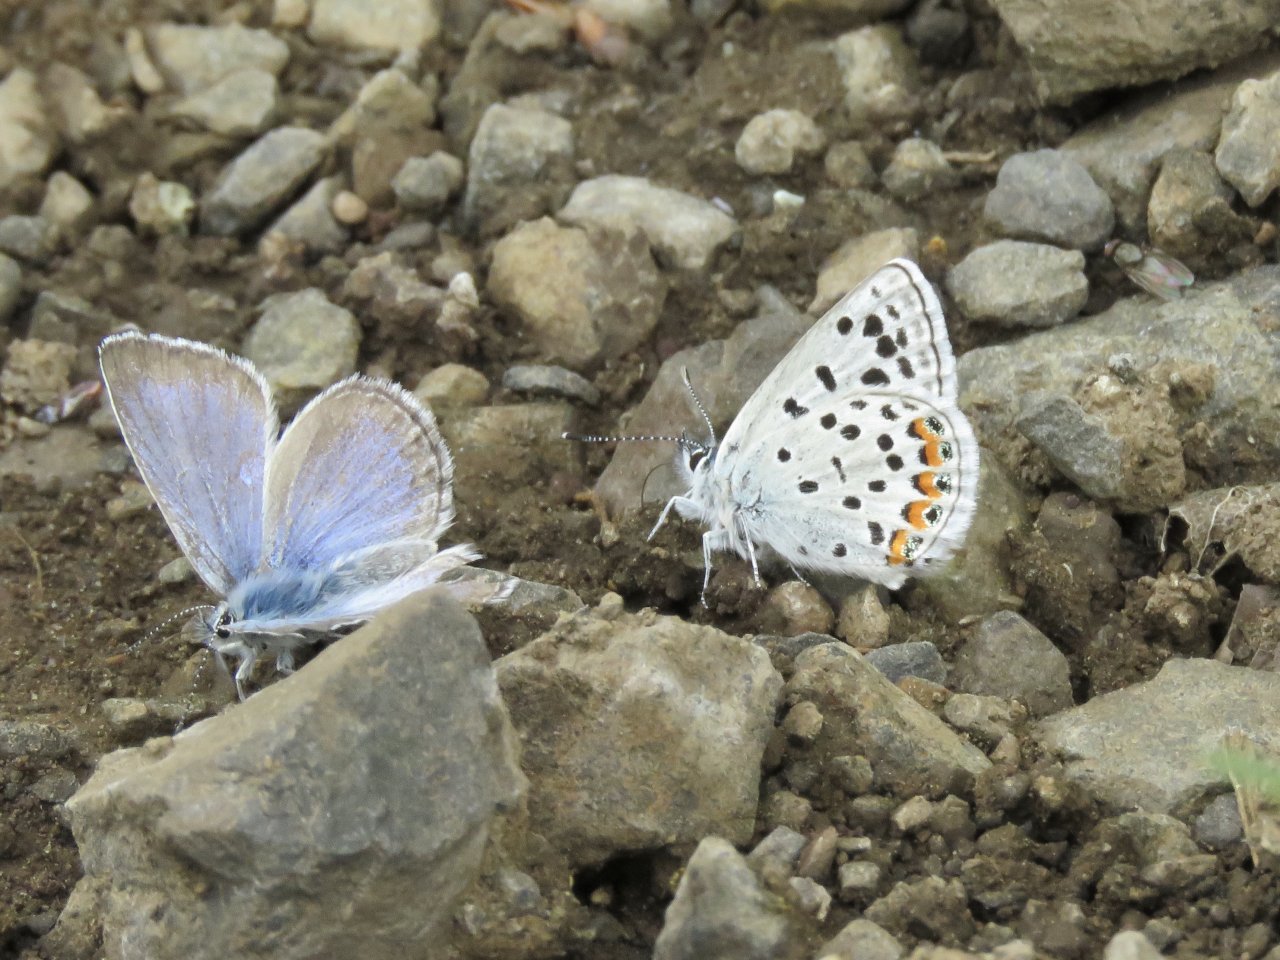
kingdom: Animalia
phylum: Arthropoda
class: Insecta
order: Lepidoptera
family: Lycaenidae
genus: Plebejus
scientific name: Plebejus lupini
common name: Lupine Blue
